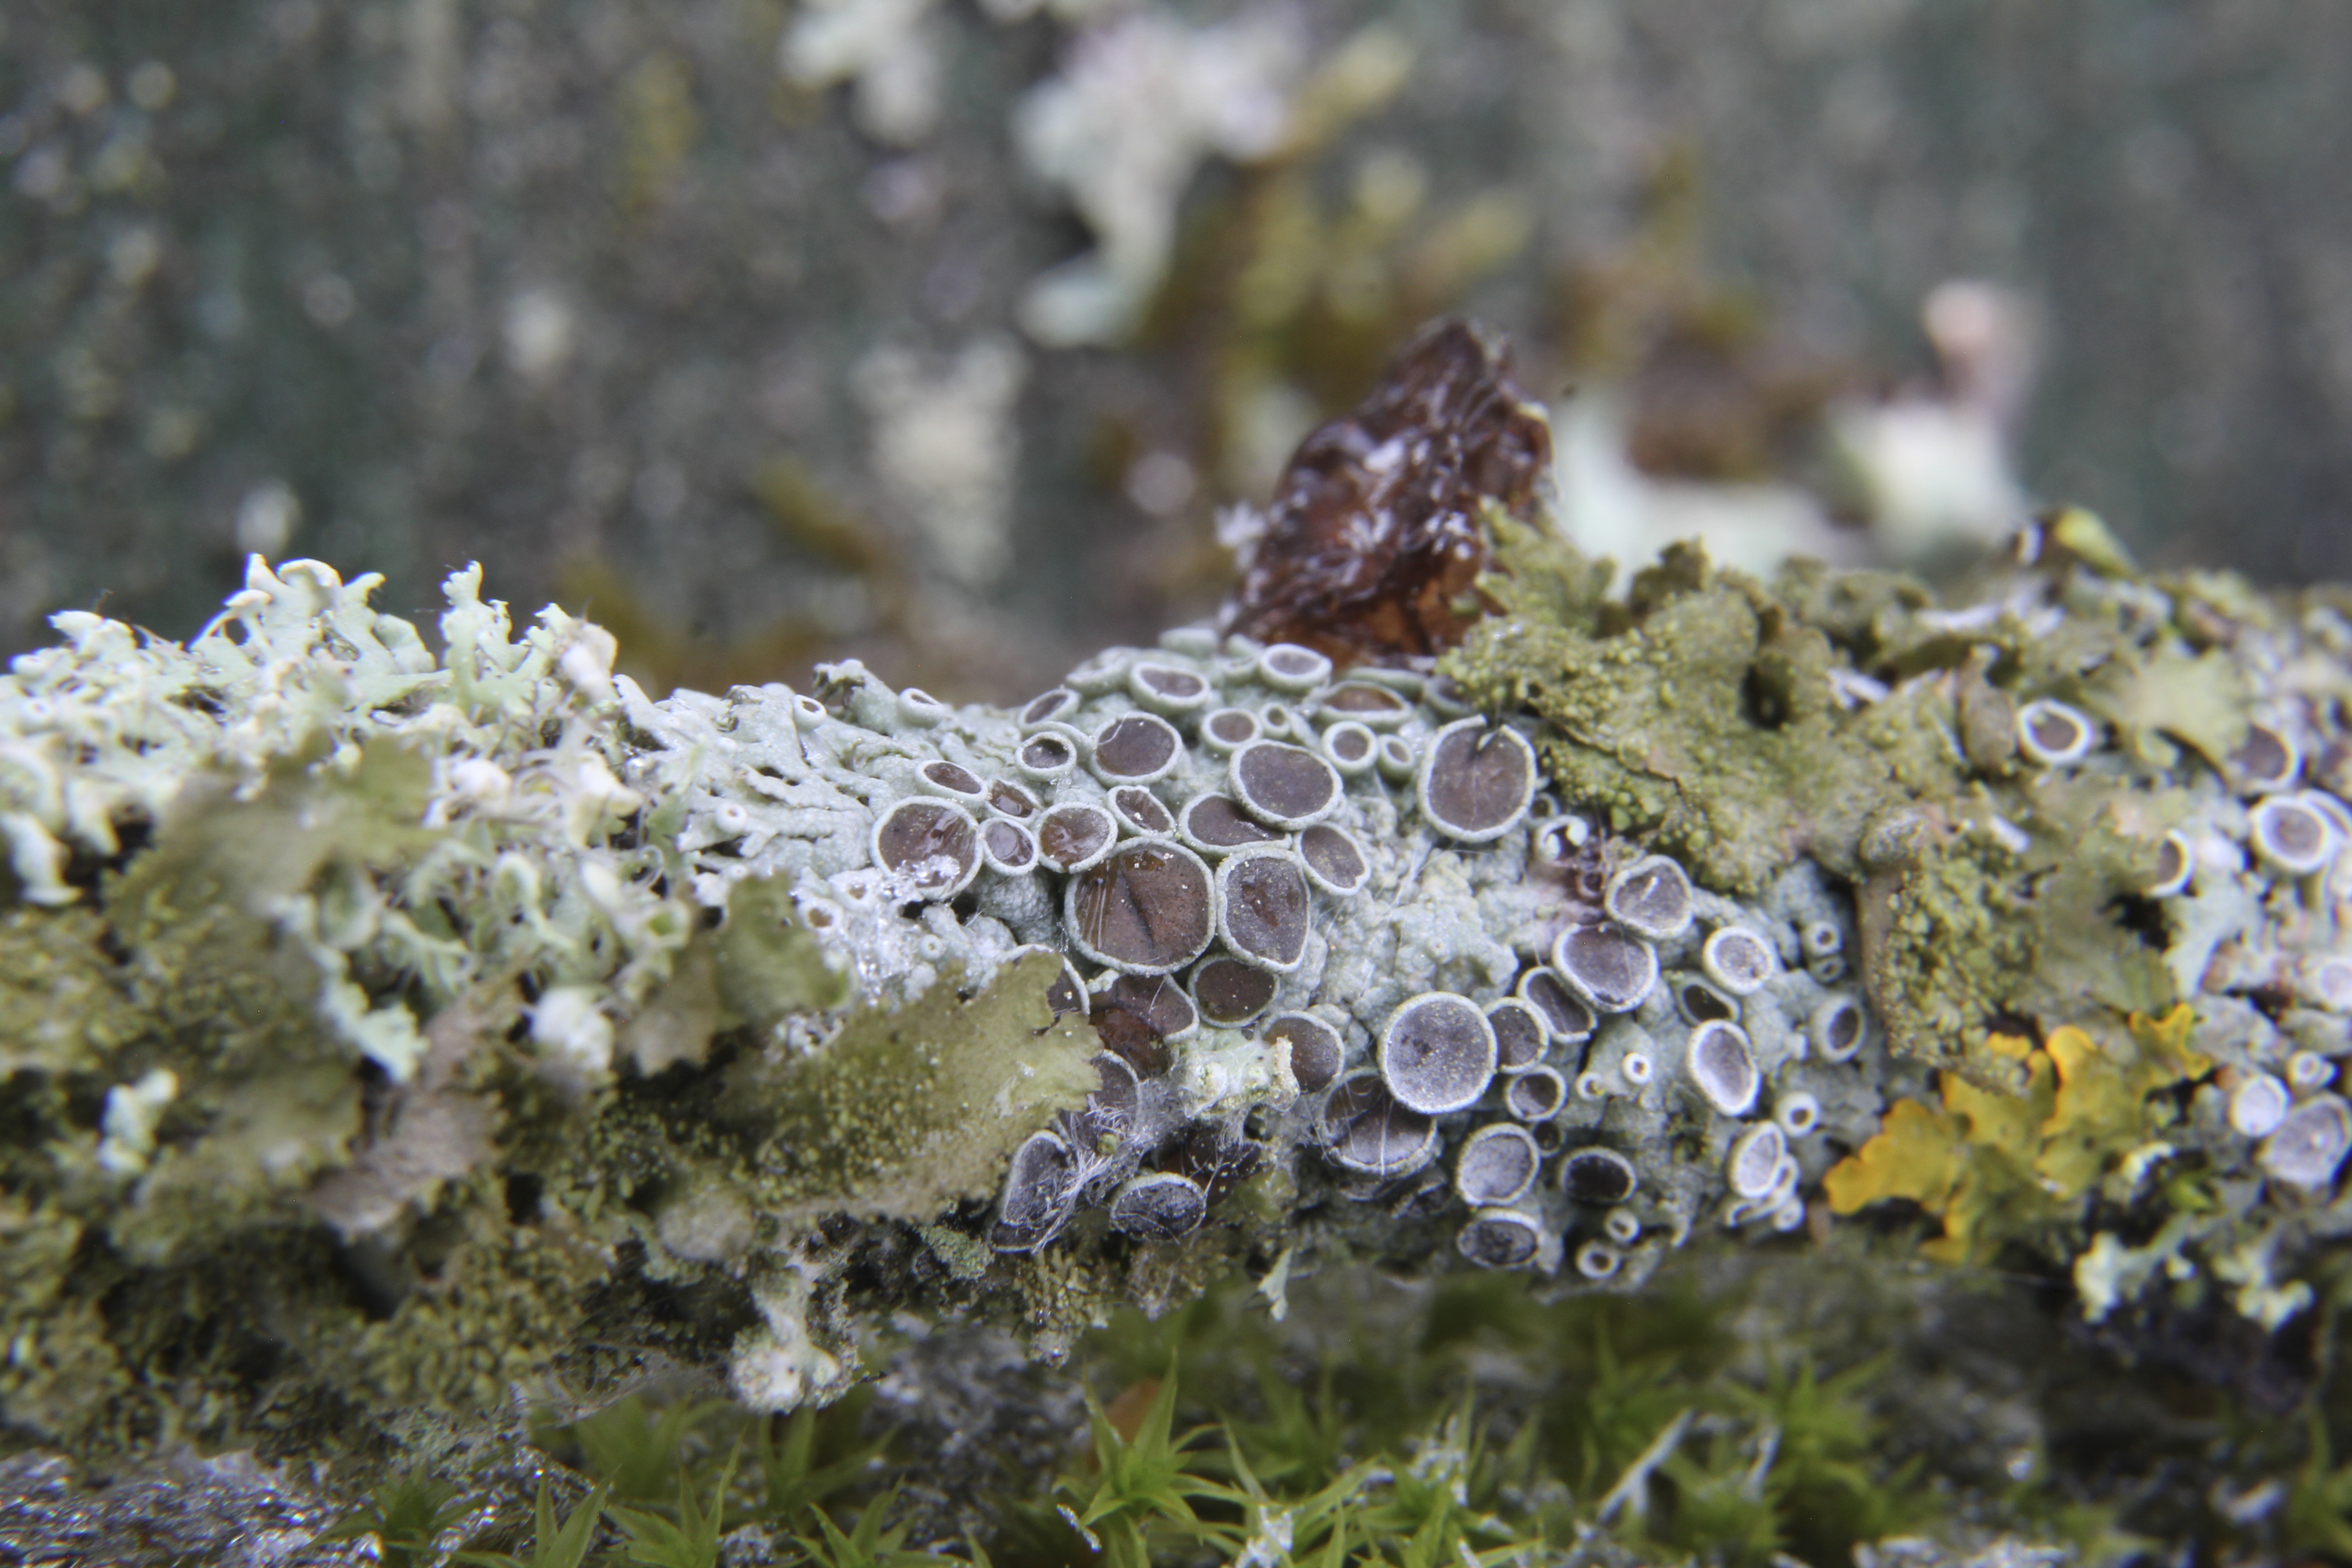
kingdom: Fungi
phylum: Ascomycota
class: Lecanoromycetes
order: Caliciales
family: Physciaceae
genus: Physcia
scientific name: Physcia stellaris
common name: Star rosette lichen
